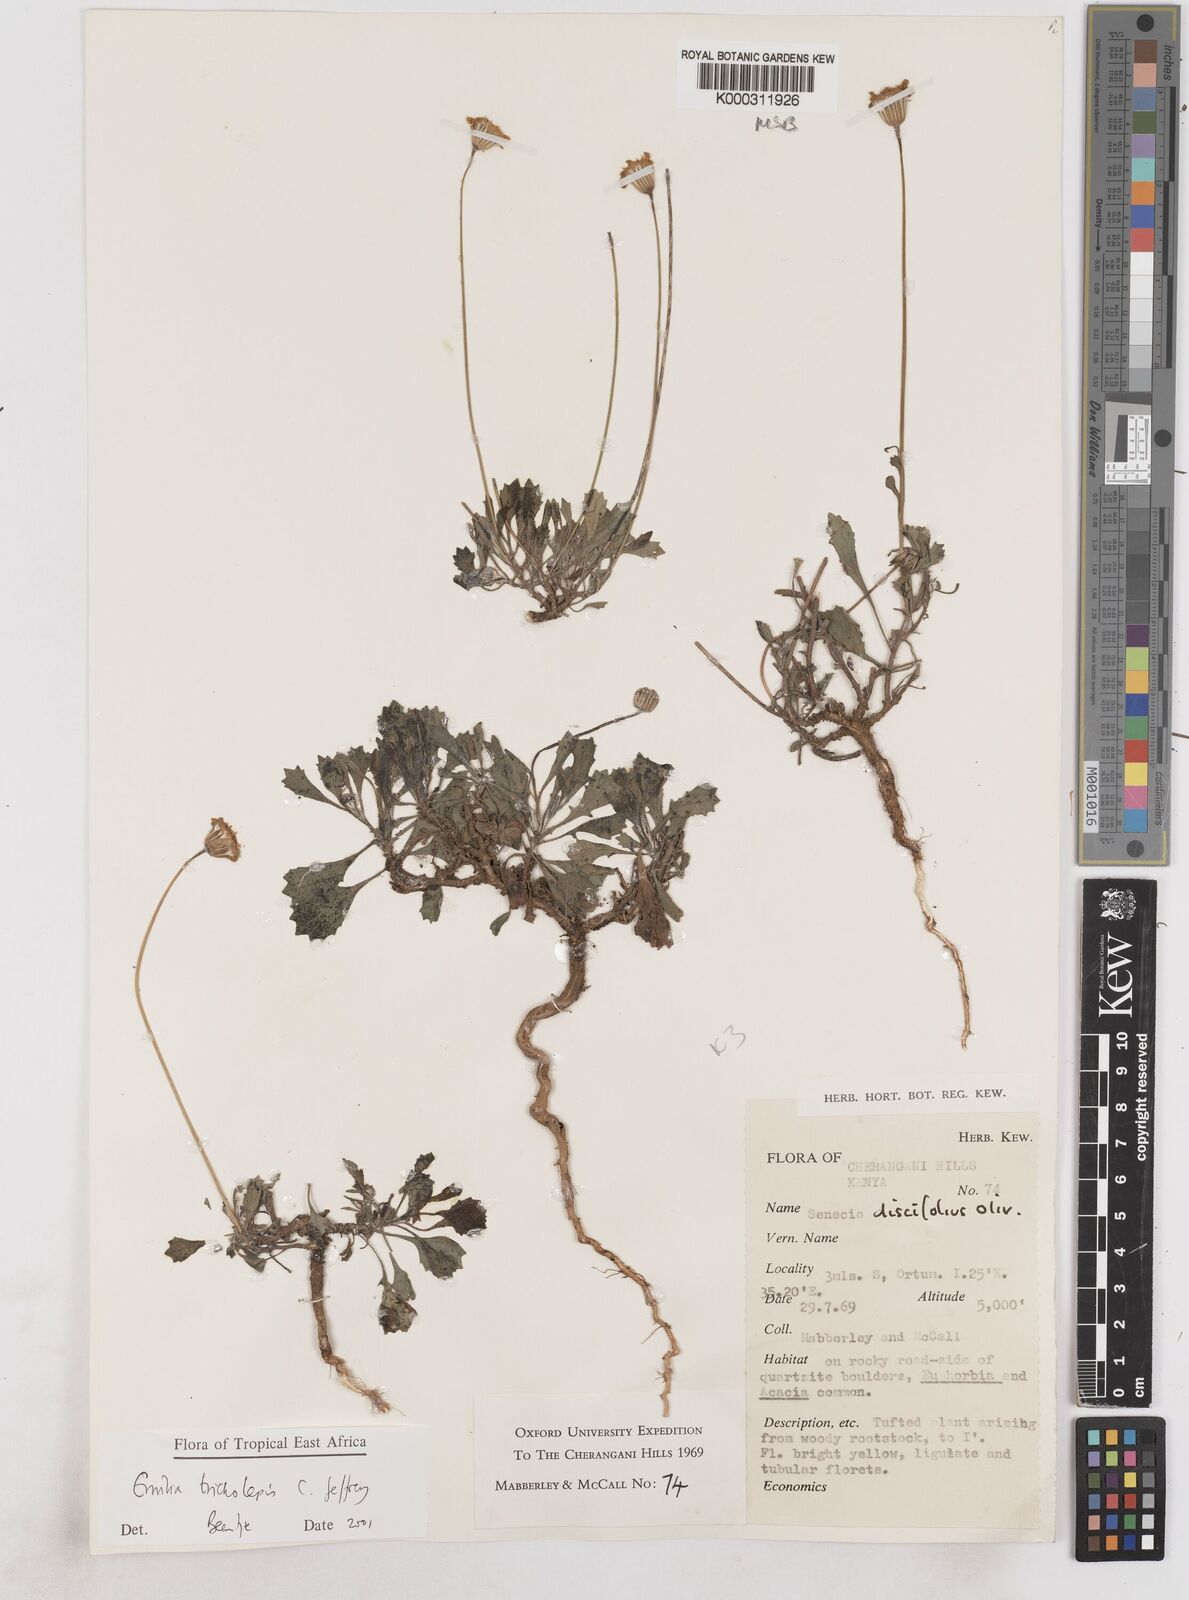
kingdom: Plantae
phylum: Tracheophyta
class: Magnoliopsida
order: Asterales
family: Asteraceae
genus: Emilia
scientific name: Emilia tricholepis
